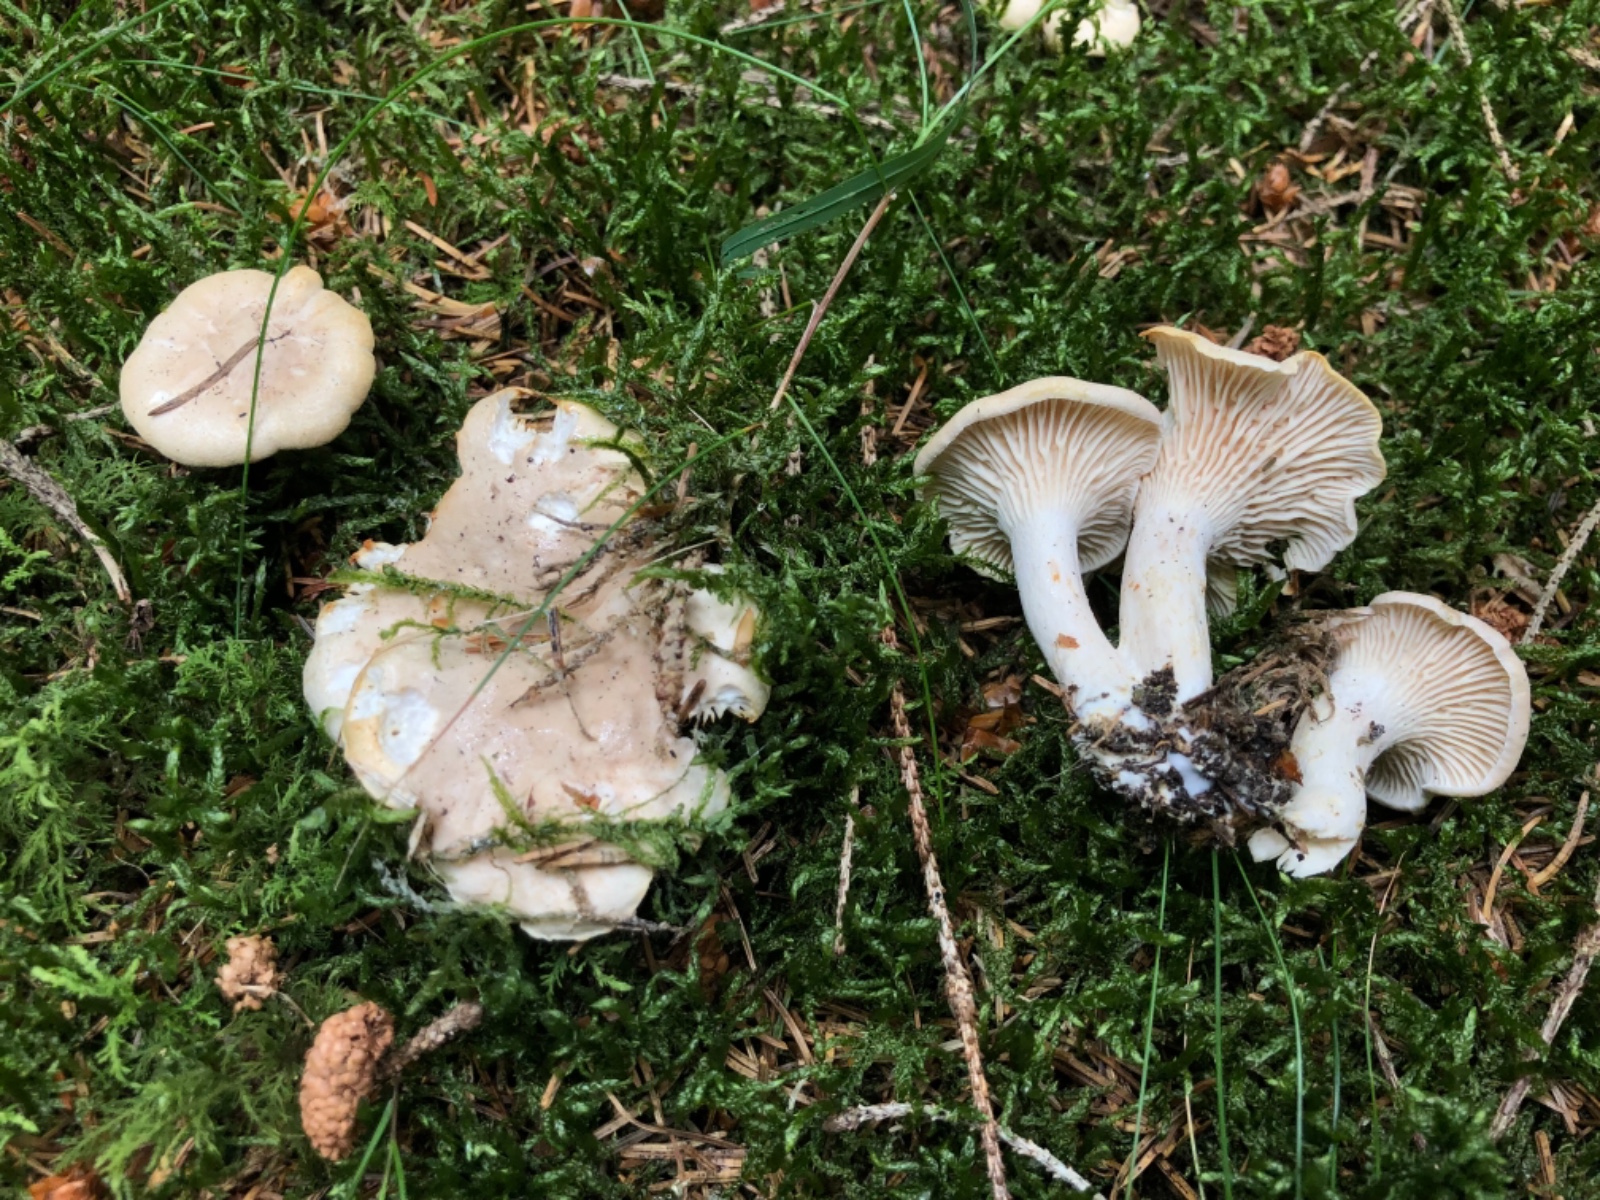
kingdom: Fungi
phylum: Basidiomycota
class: Agaricomycetes
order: Cantharellales
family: Hydnaceae
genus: Cantharellus
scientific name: Cantharellus
